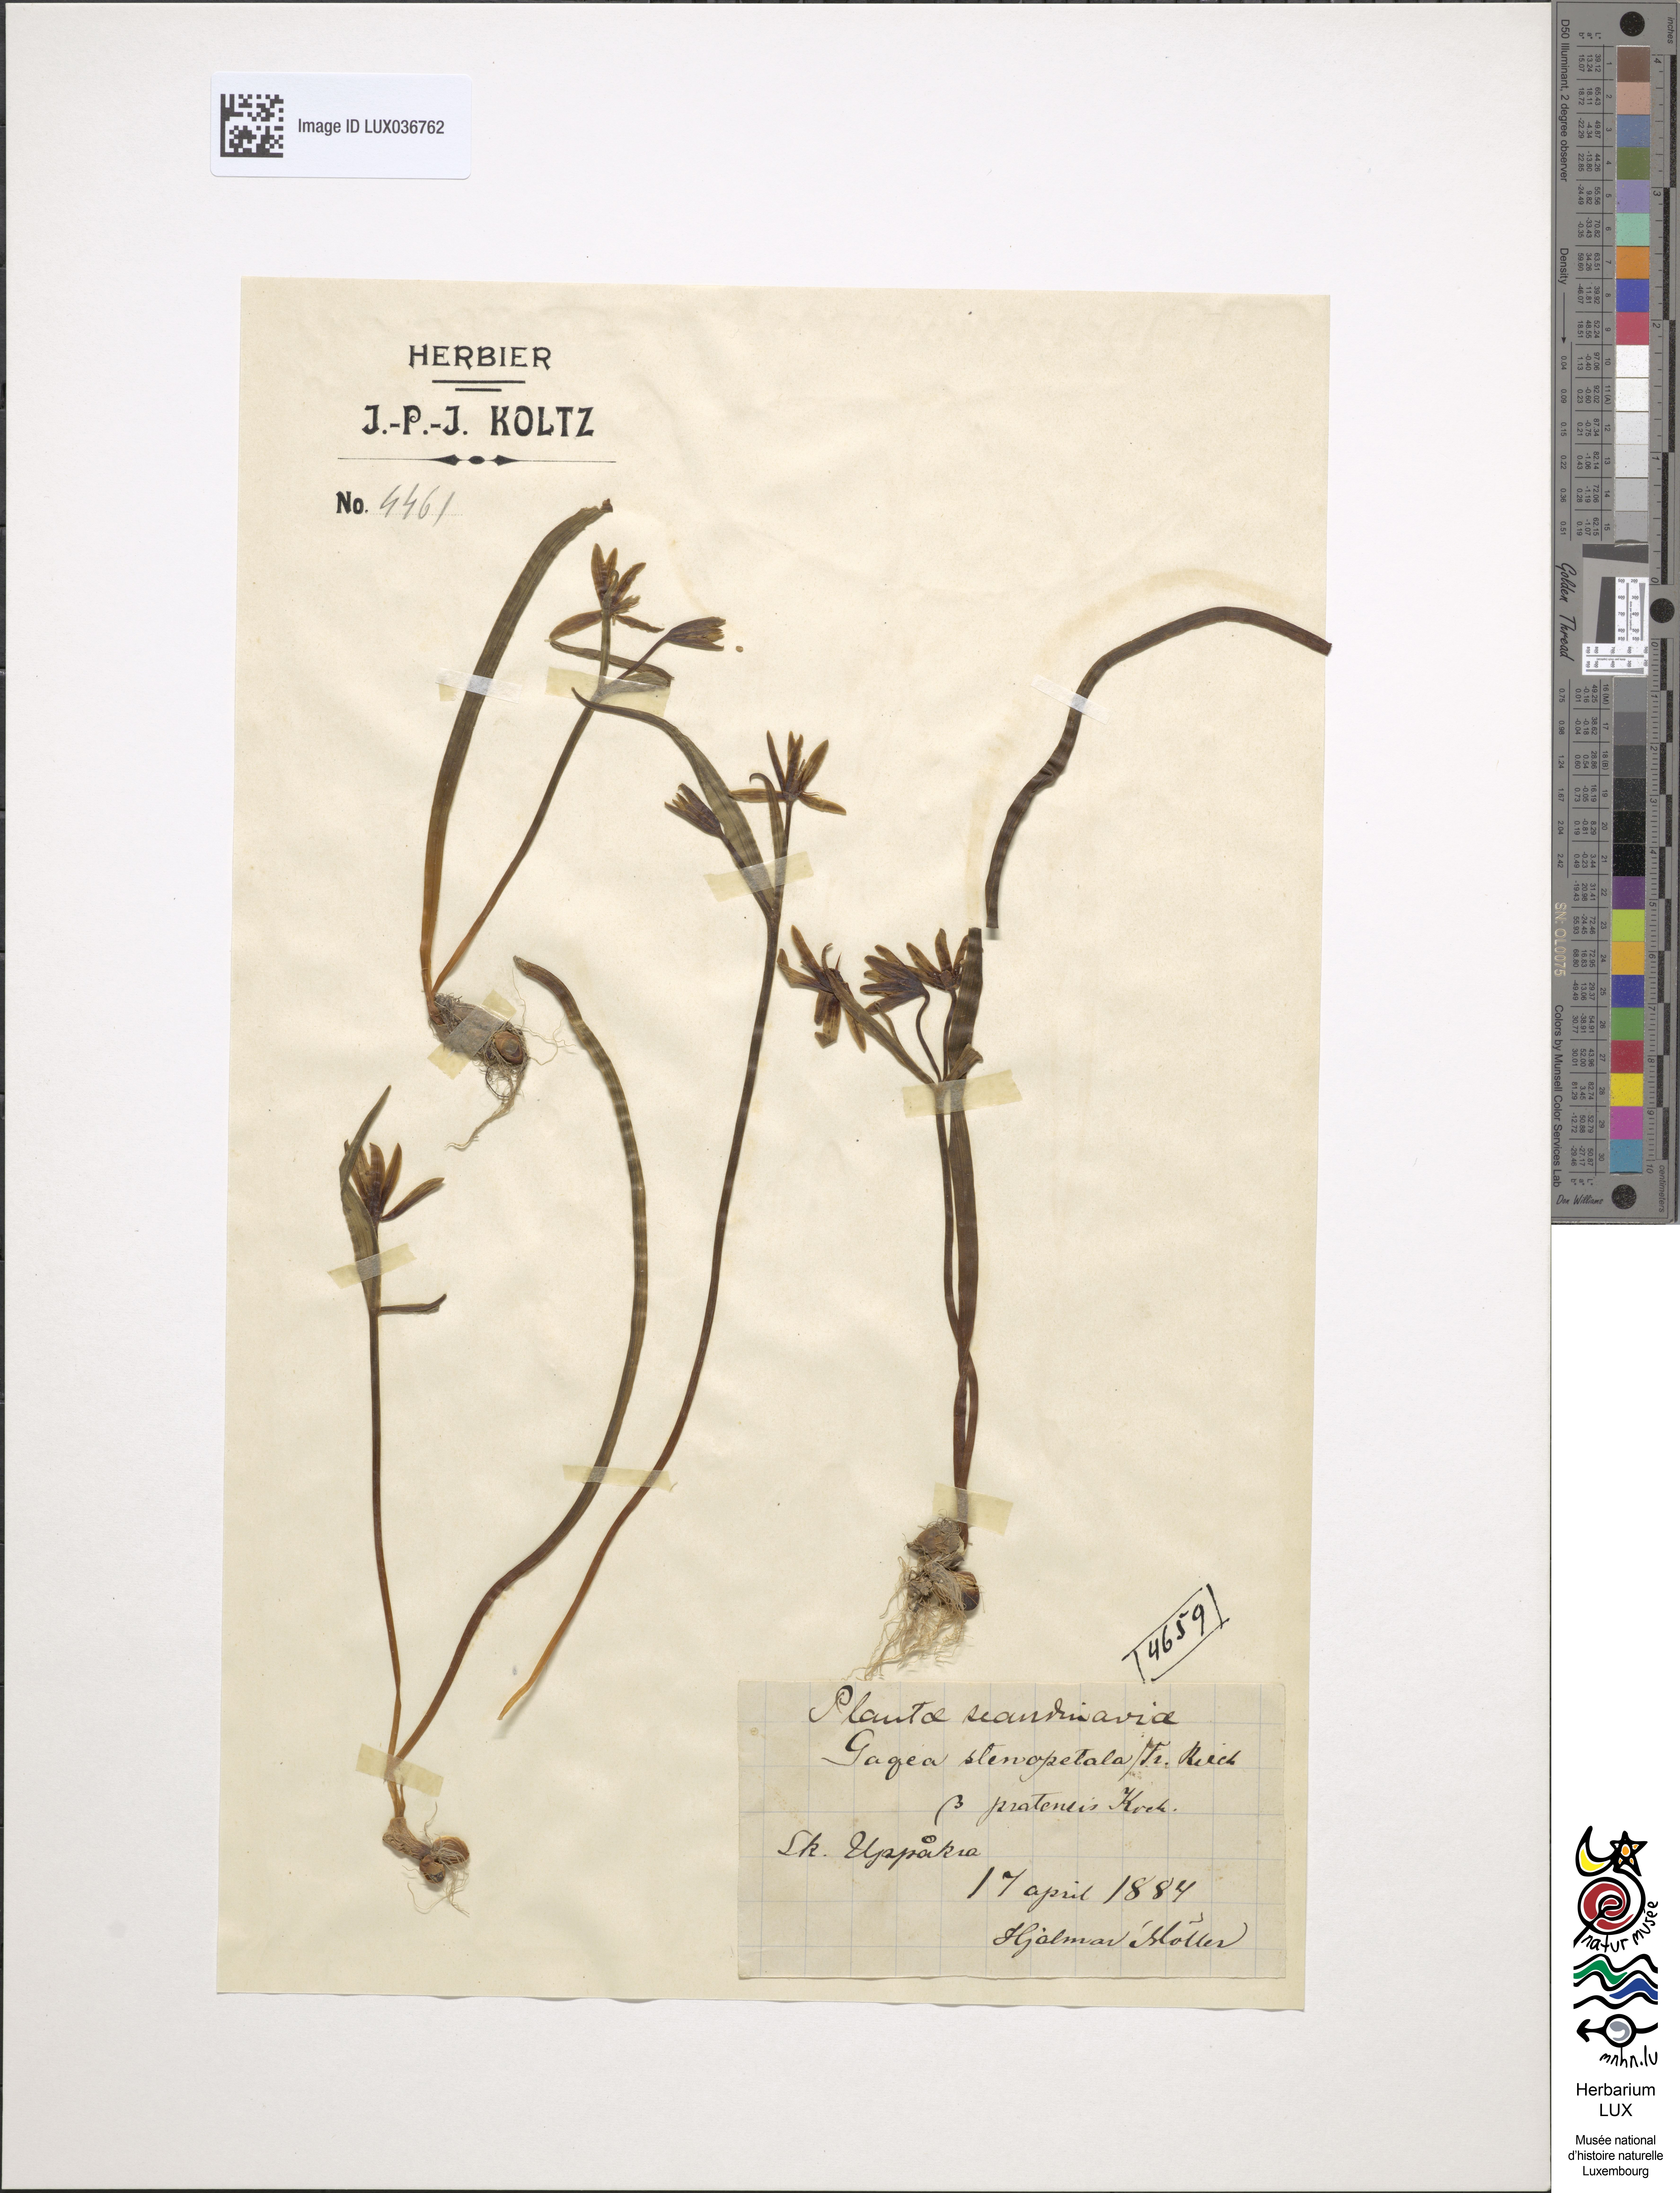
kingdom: Plantae
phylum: Tracheophyta
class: Liliopsida
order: Liliales
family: Liliaceae
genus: Gagea
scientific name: Gagea pomeranica
